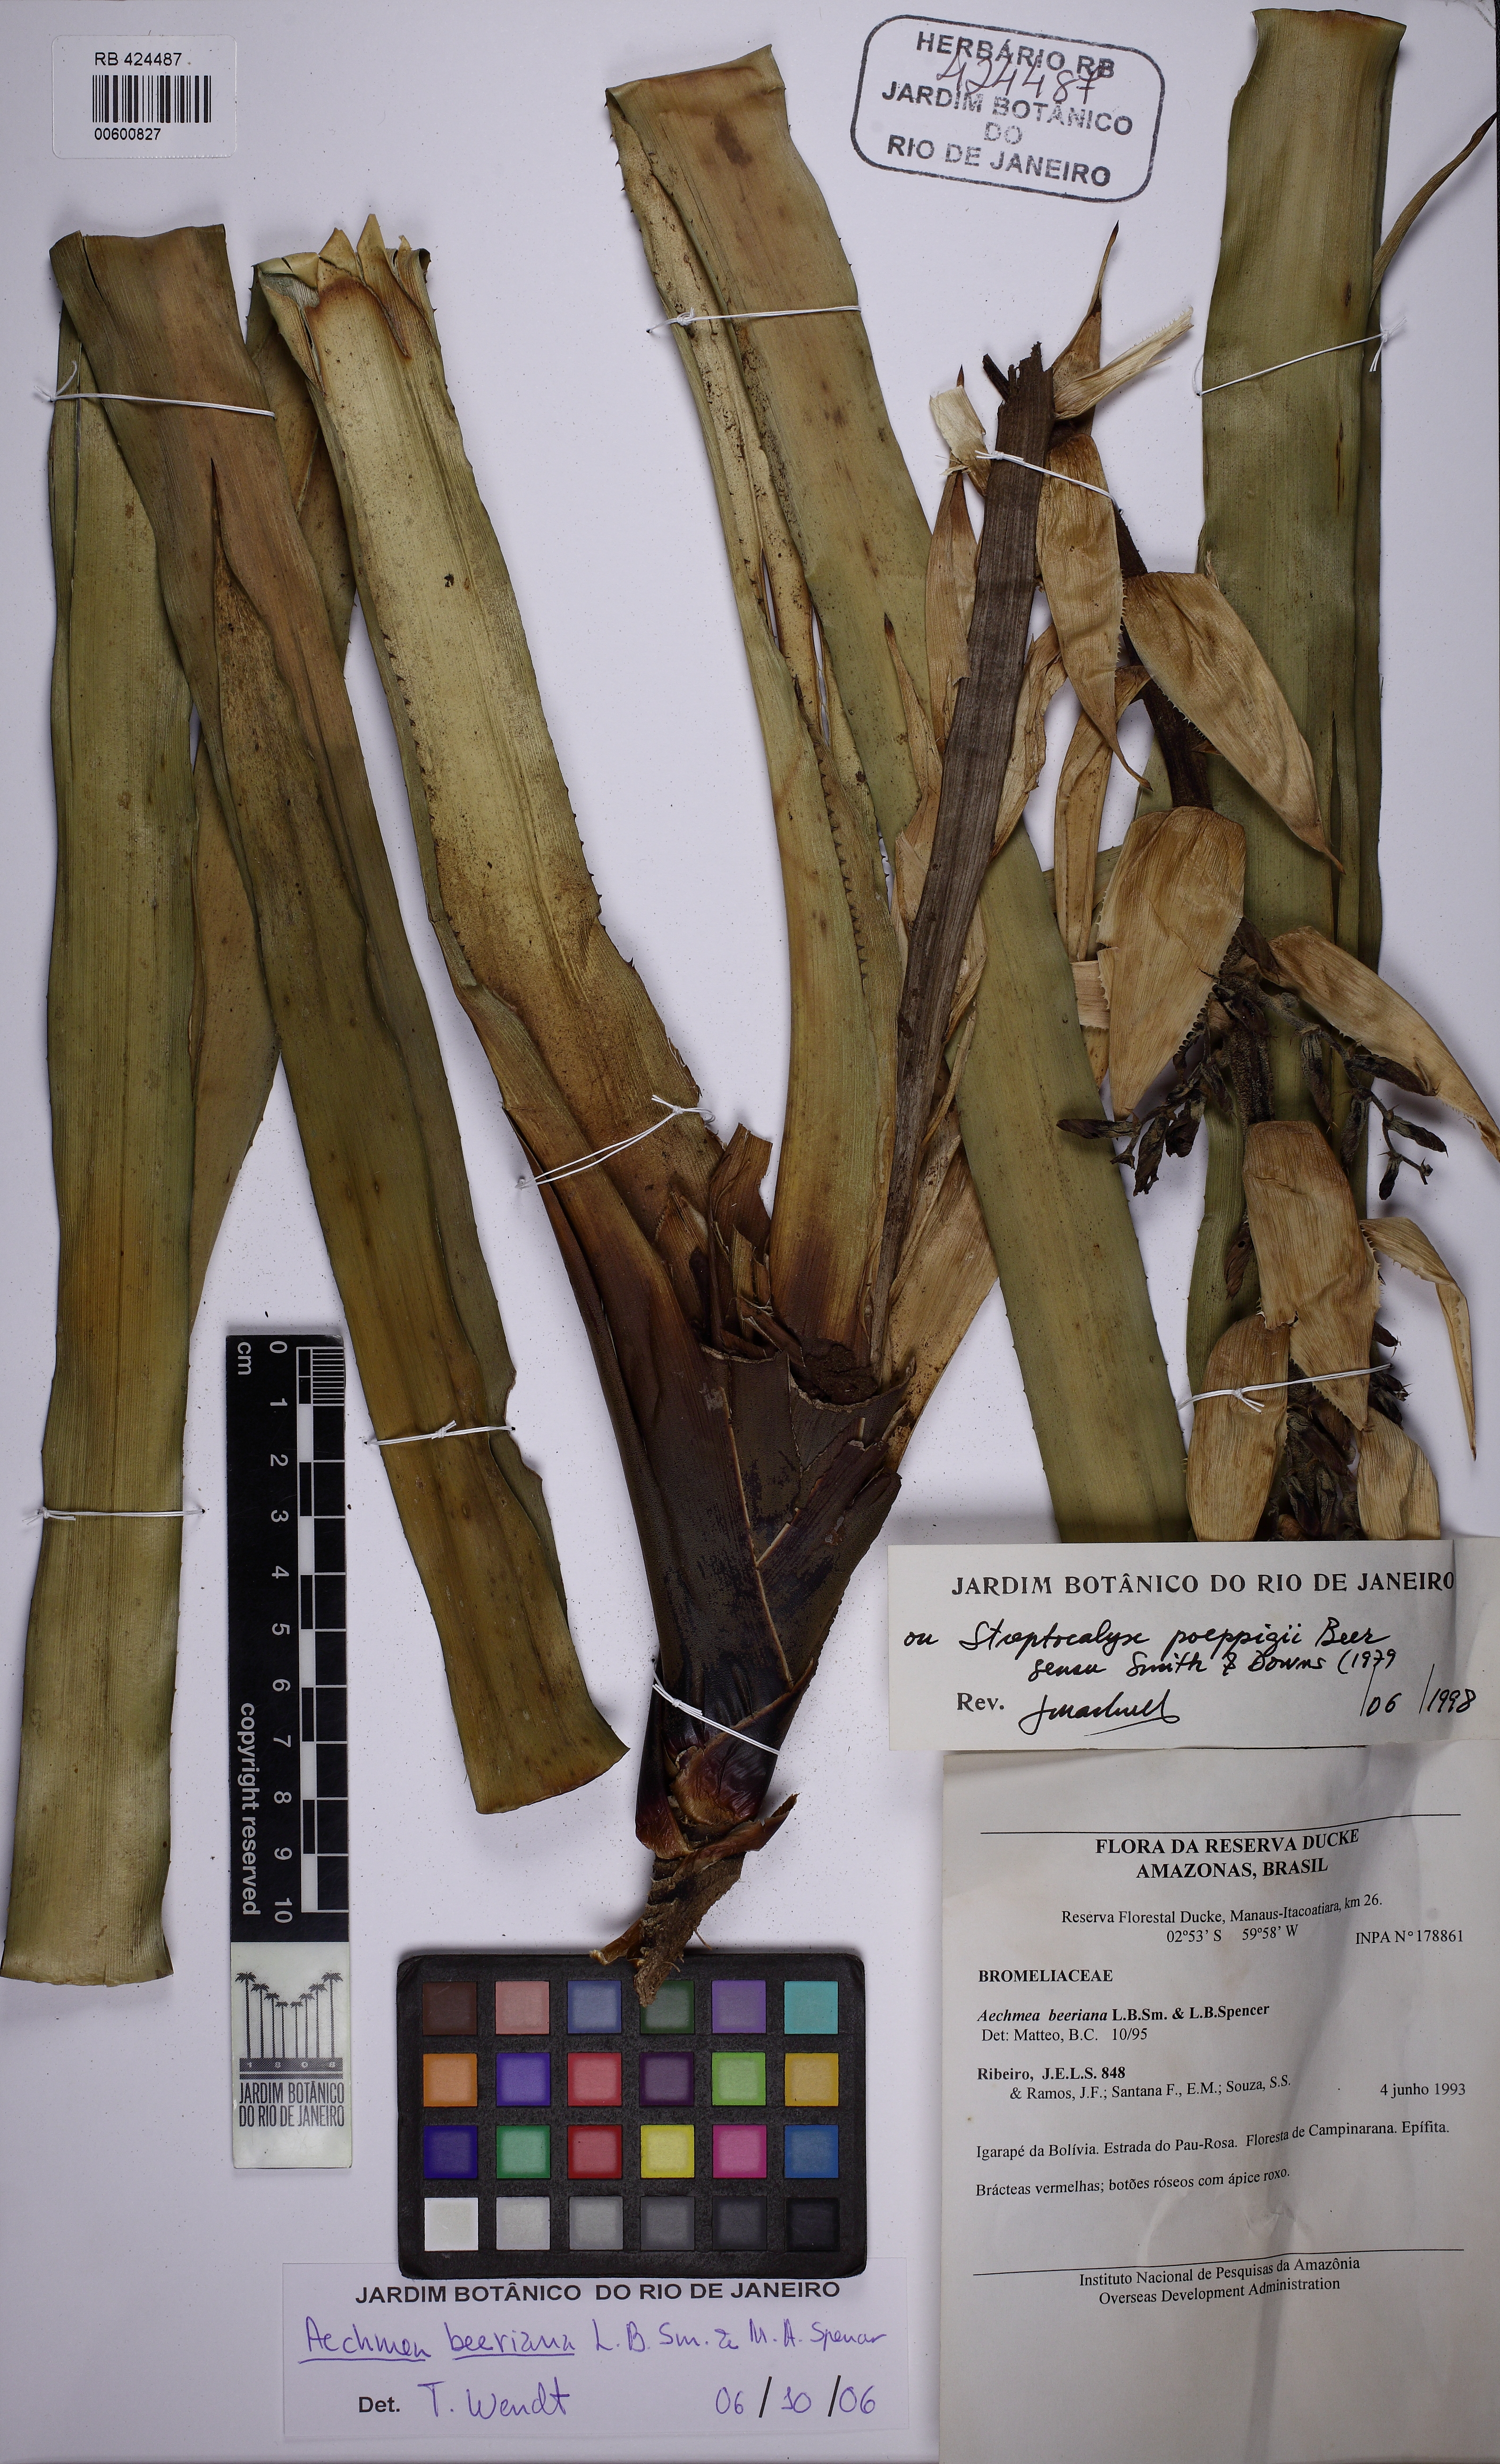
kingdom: Plantae
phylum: Tracheophyta
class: Liliopsida
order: Poales
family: Bromeliaceae
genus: Aechmea
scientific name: Aechmea vallerandii
